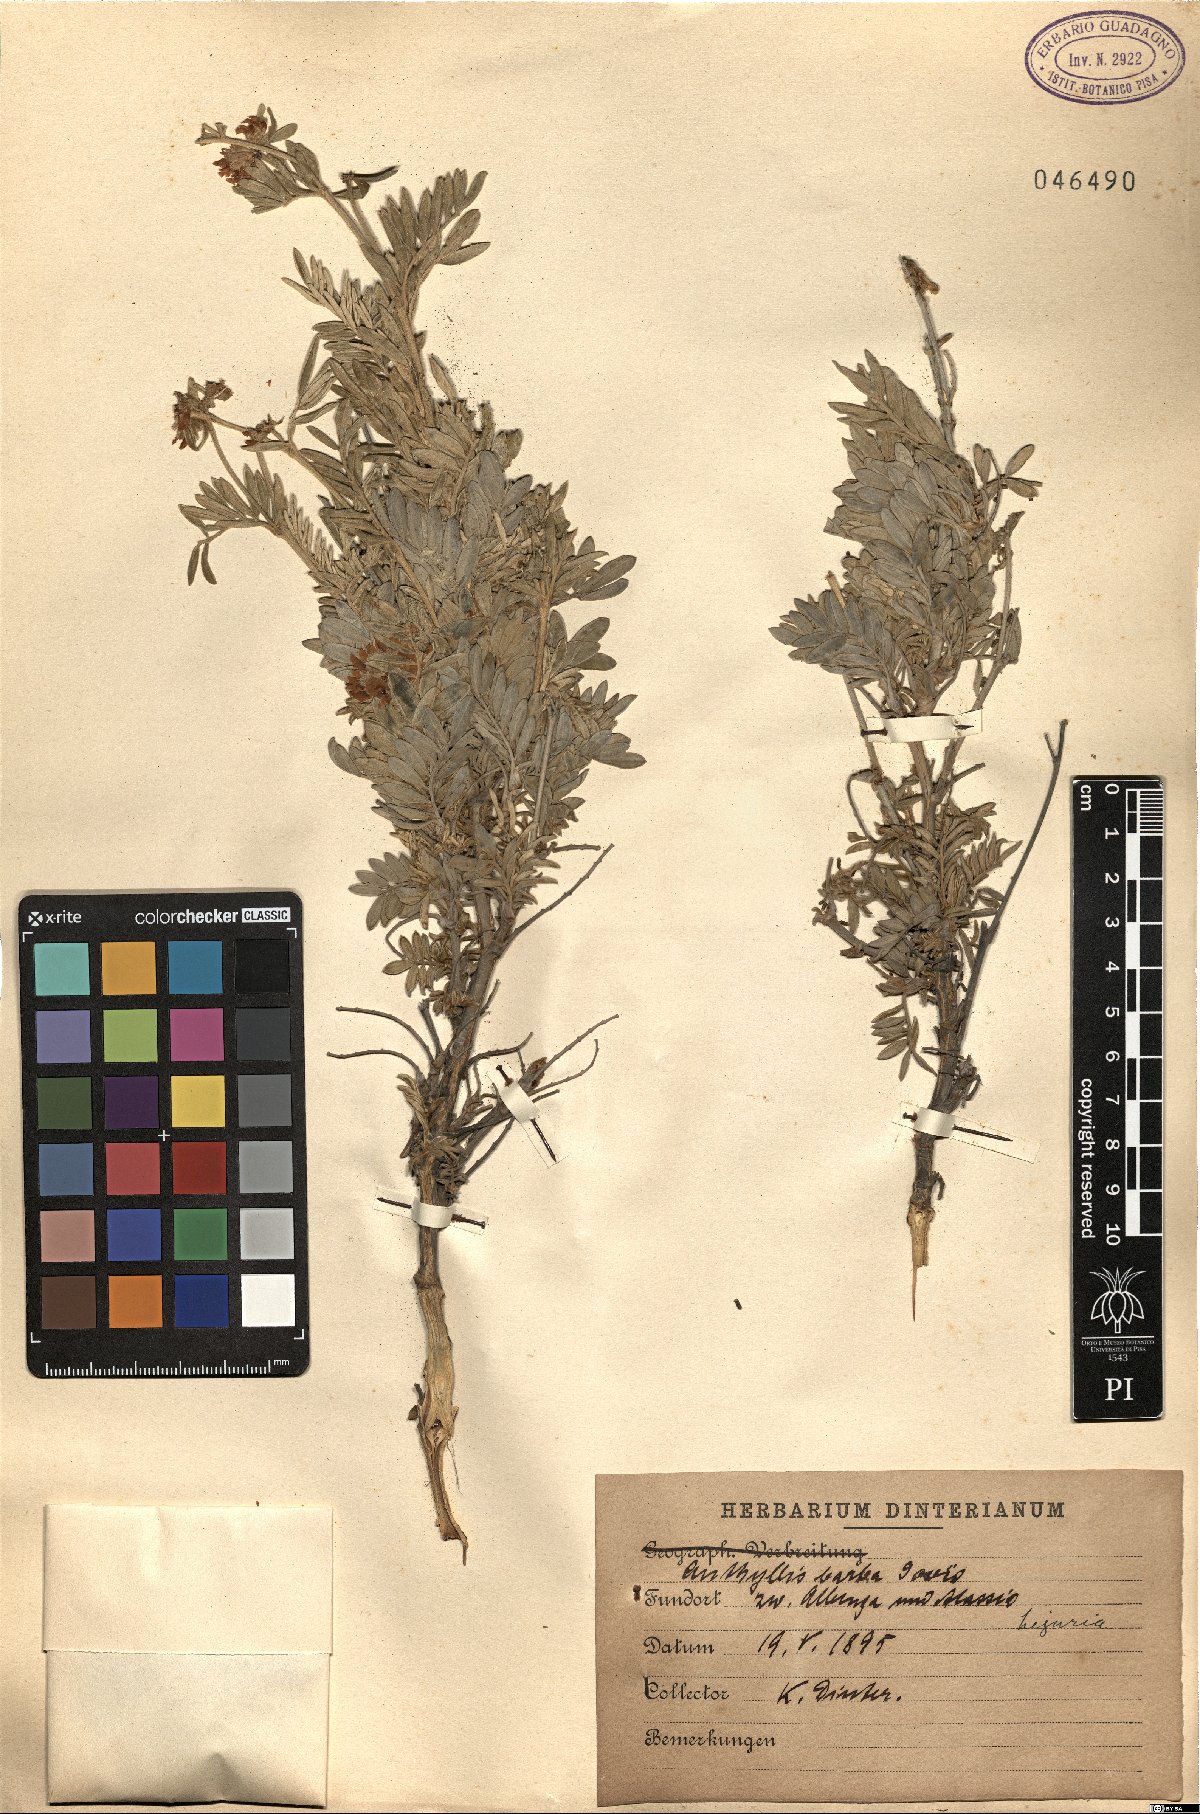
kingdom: Plantae
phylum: Tracheophyta
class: Magnoliopsida
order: Fabales
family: Fabaceae
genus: Anthyllis
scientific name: Anthyllis barba-jovis
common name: Jupiter's-beard
